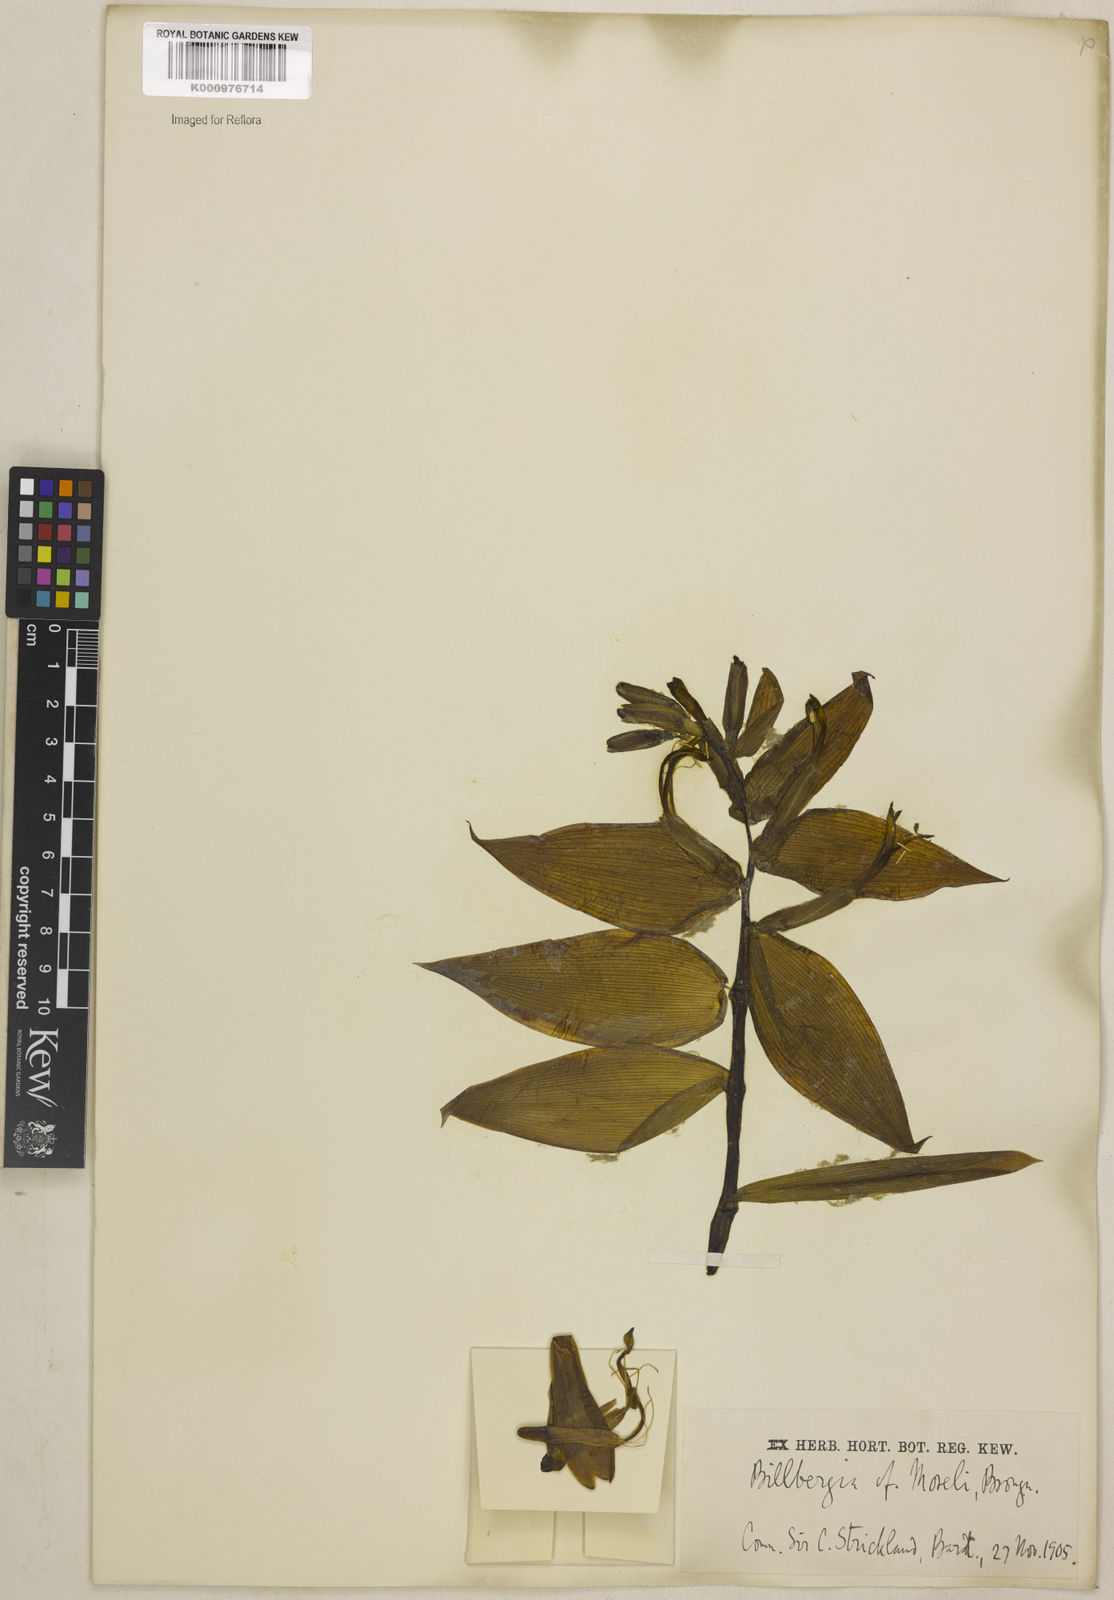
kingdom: Plantae
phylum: Tracheophyta
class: Liliopsida
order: Poales
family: Bromeliaceae
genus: Billbergia
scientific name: Billbergia morelii
